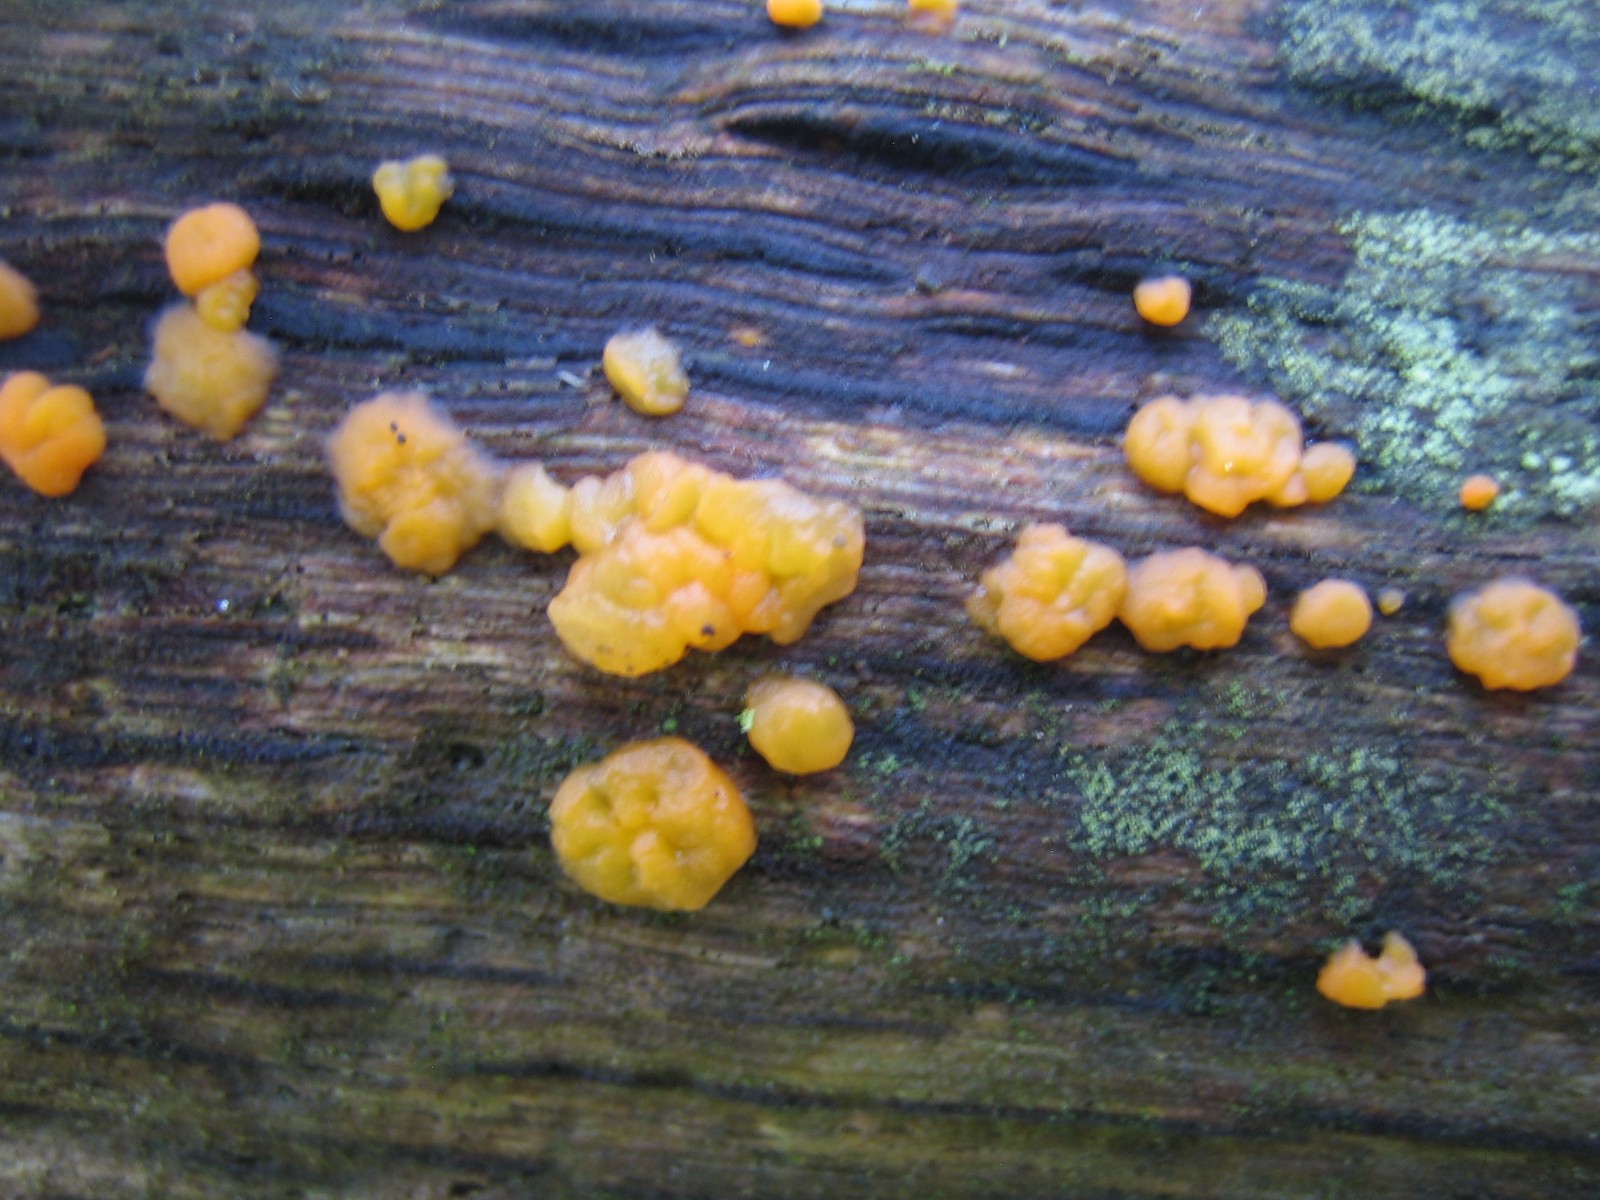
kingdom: Fungi
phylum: Basidiomycota
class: Dacrymycetes
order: Dacrymycetales
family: Dacrymycetaceae
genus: Dacrymyces
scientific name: Dacrymyces
